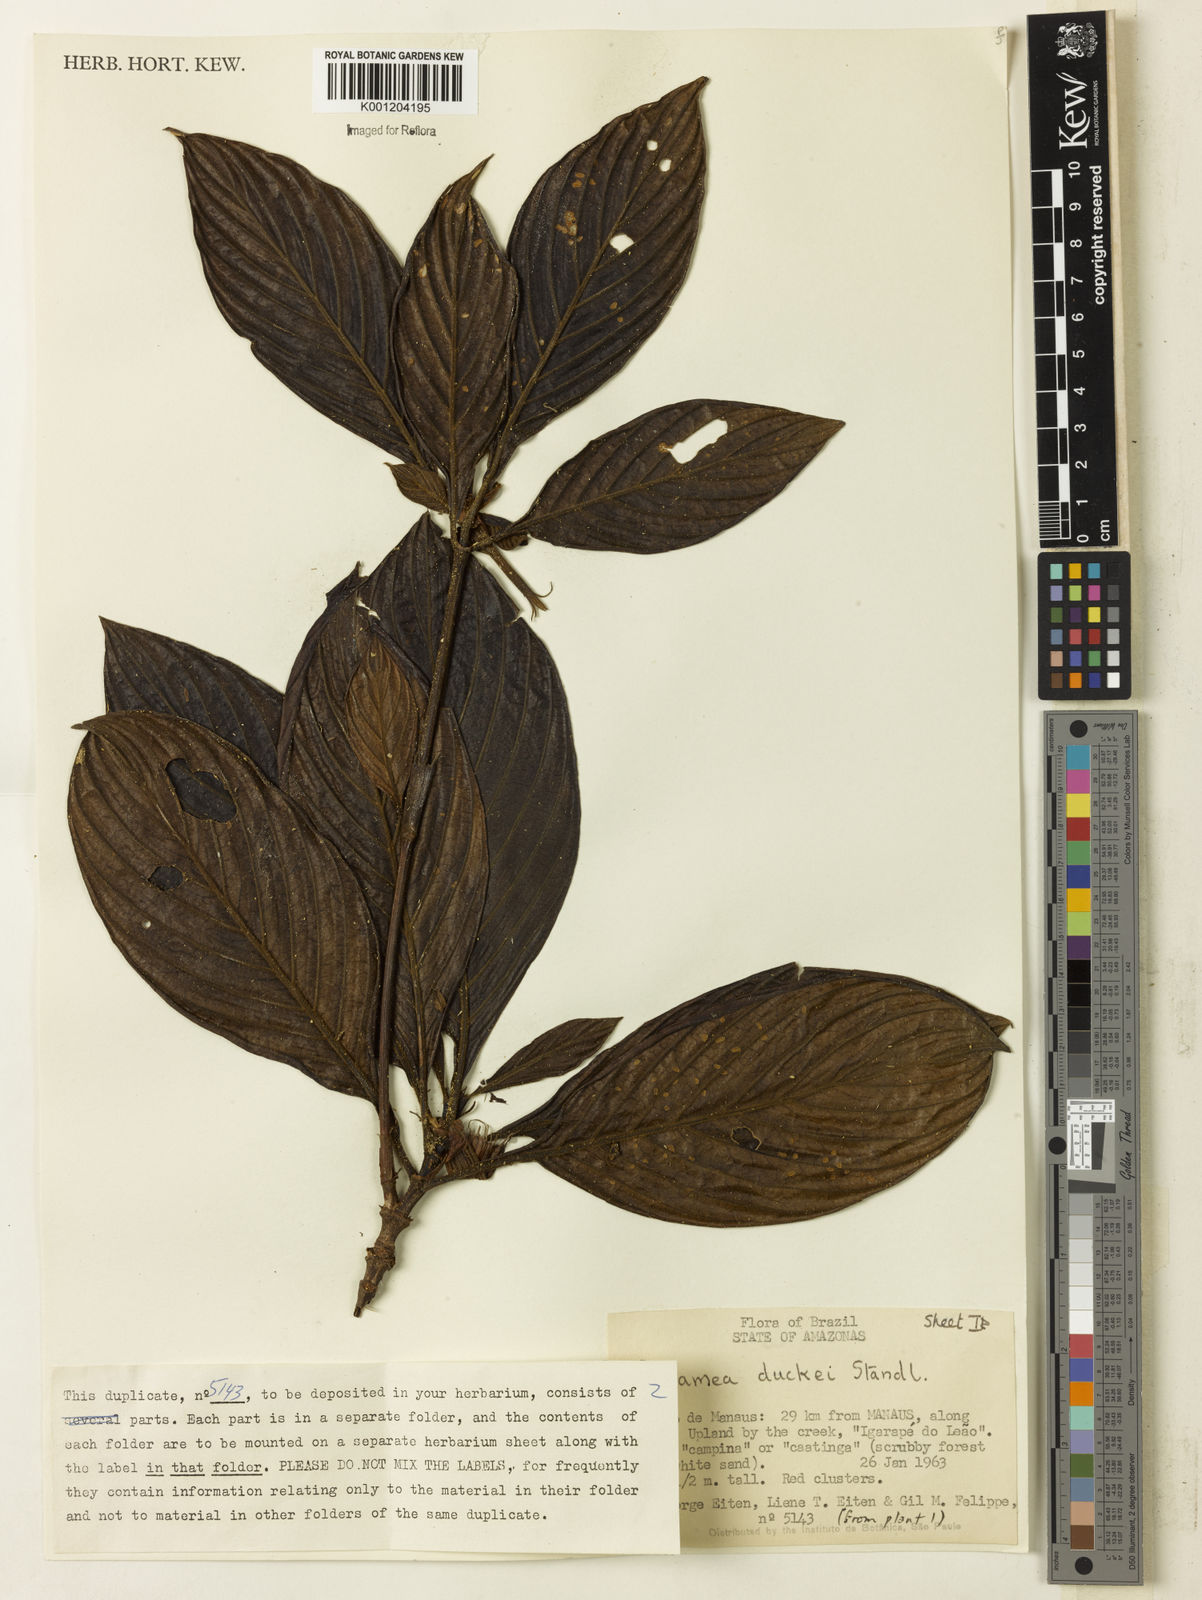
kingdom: Plantae
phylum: Tracheophyta
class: Magnoliopsida
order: Gentianales
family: Rubiaceae
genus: Pagamea
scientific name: Pagamea duckei
